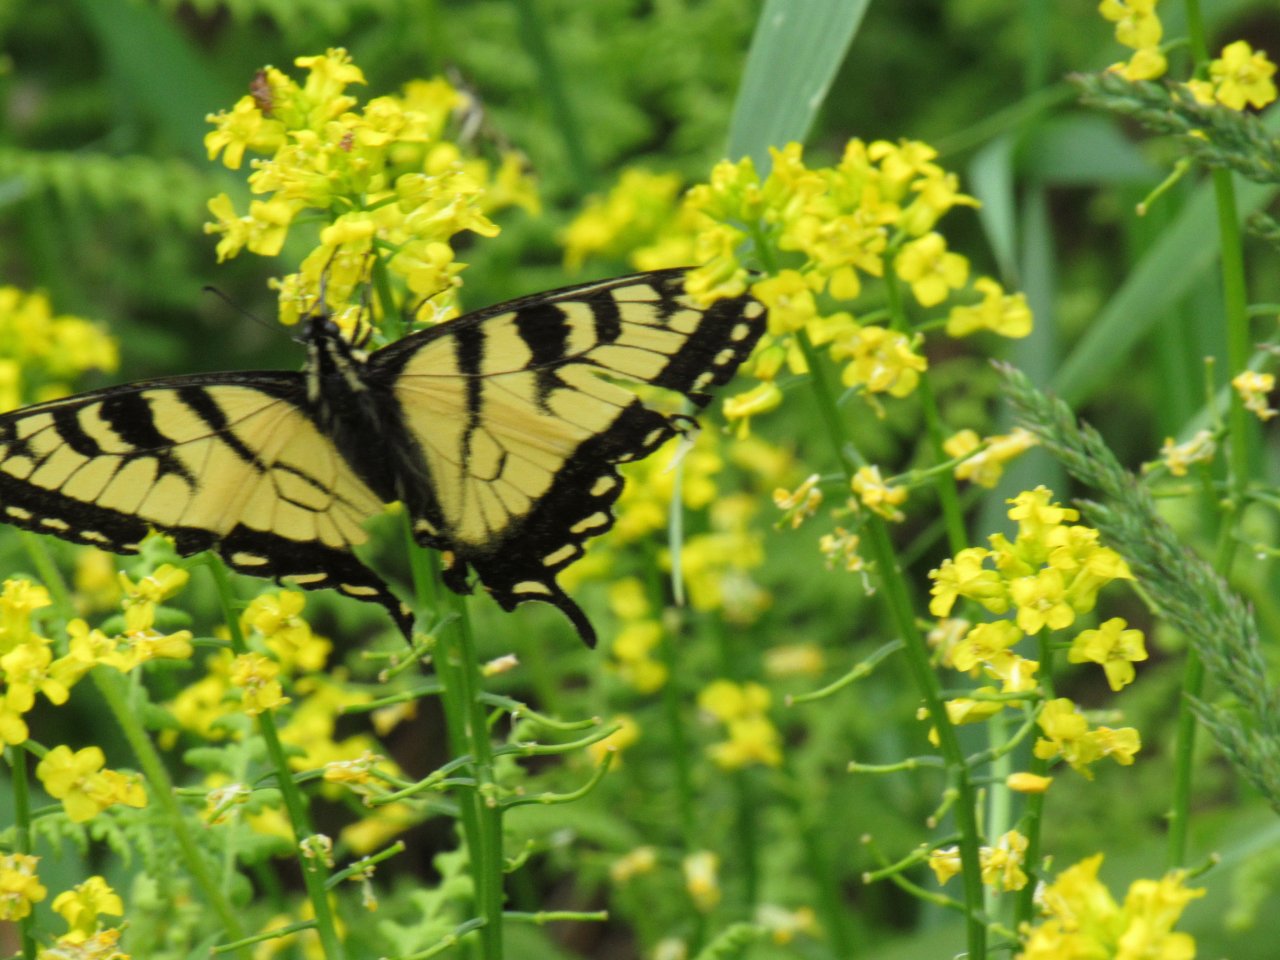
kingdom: Animalia
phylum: Arthropoda
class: Insecta
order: Lepidoptera
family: Papilionidae
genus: Pterourus
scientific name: Pterourus canadensis
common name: Canadian Tiger Swallowtail
